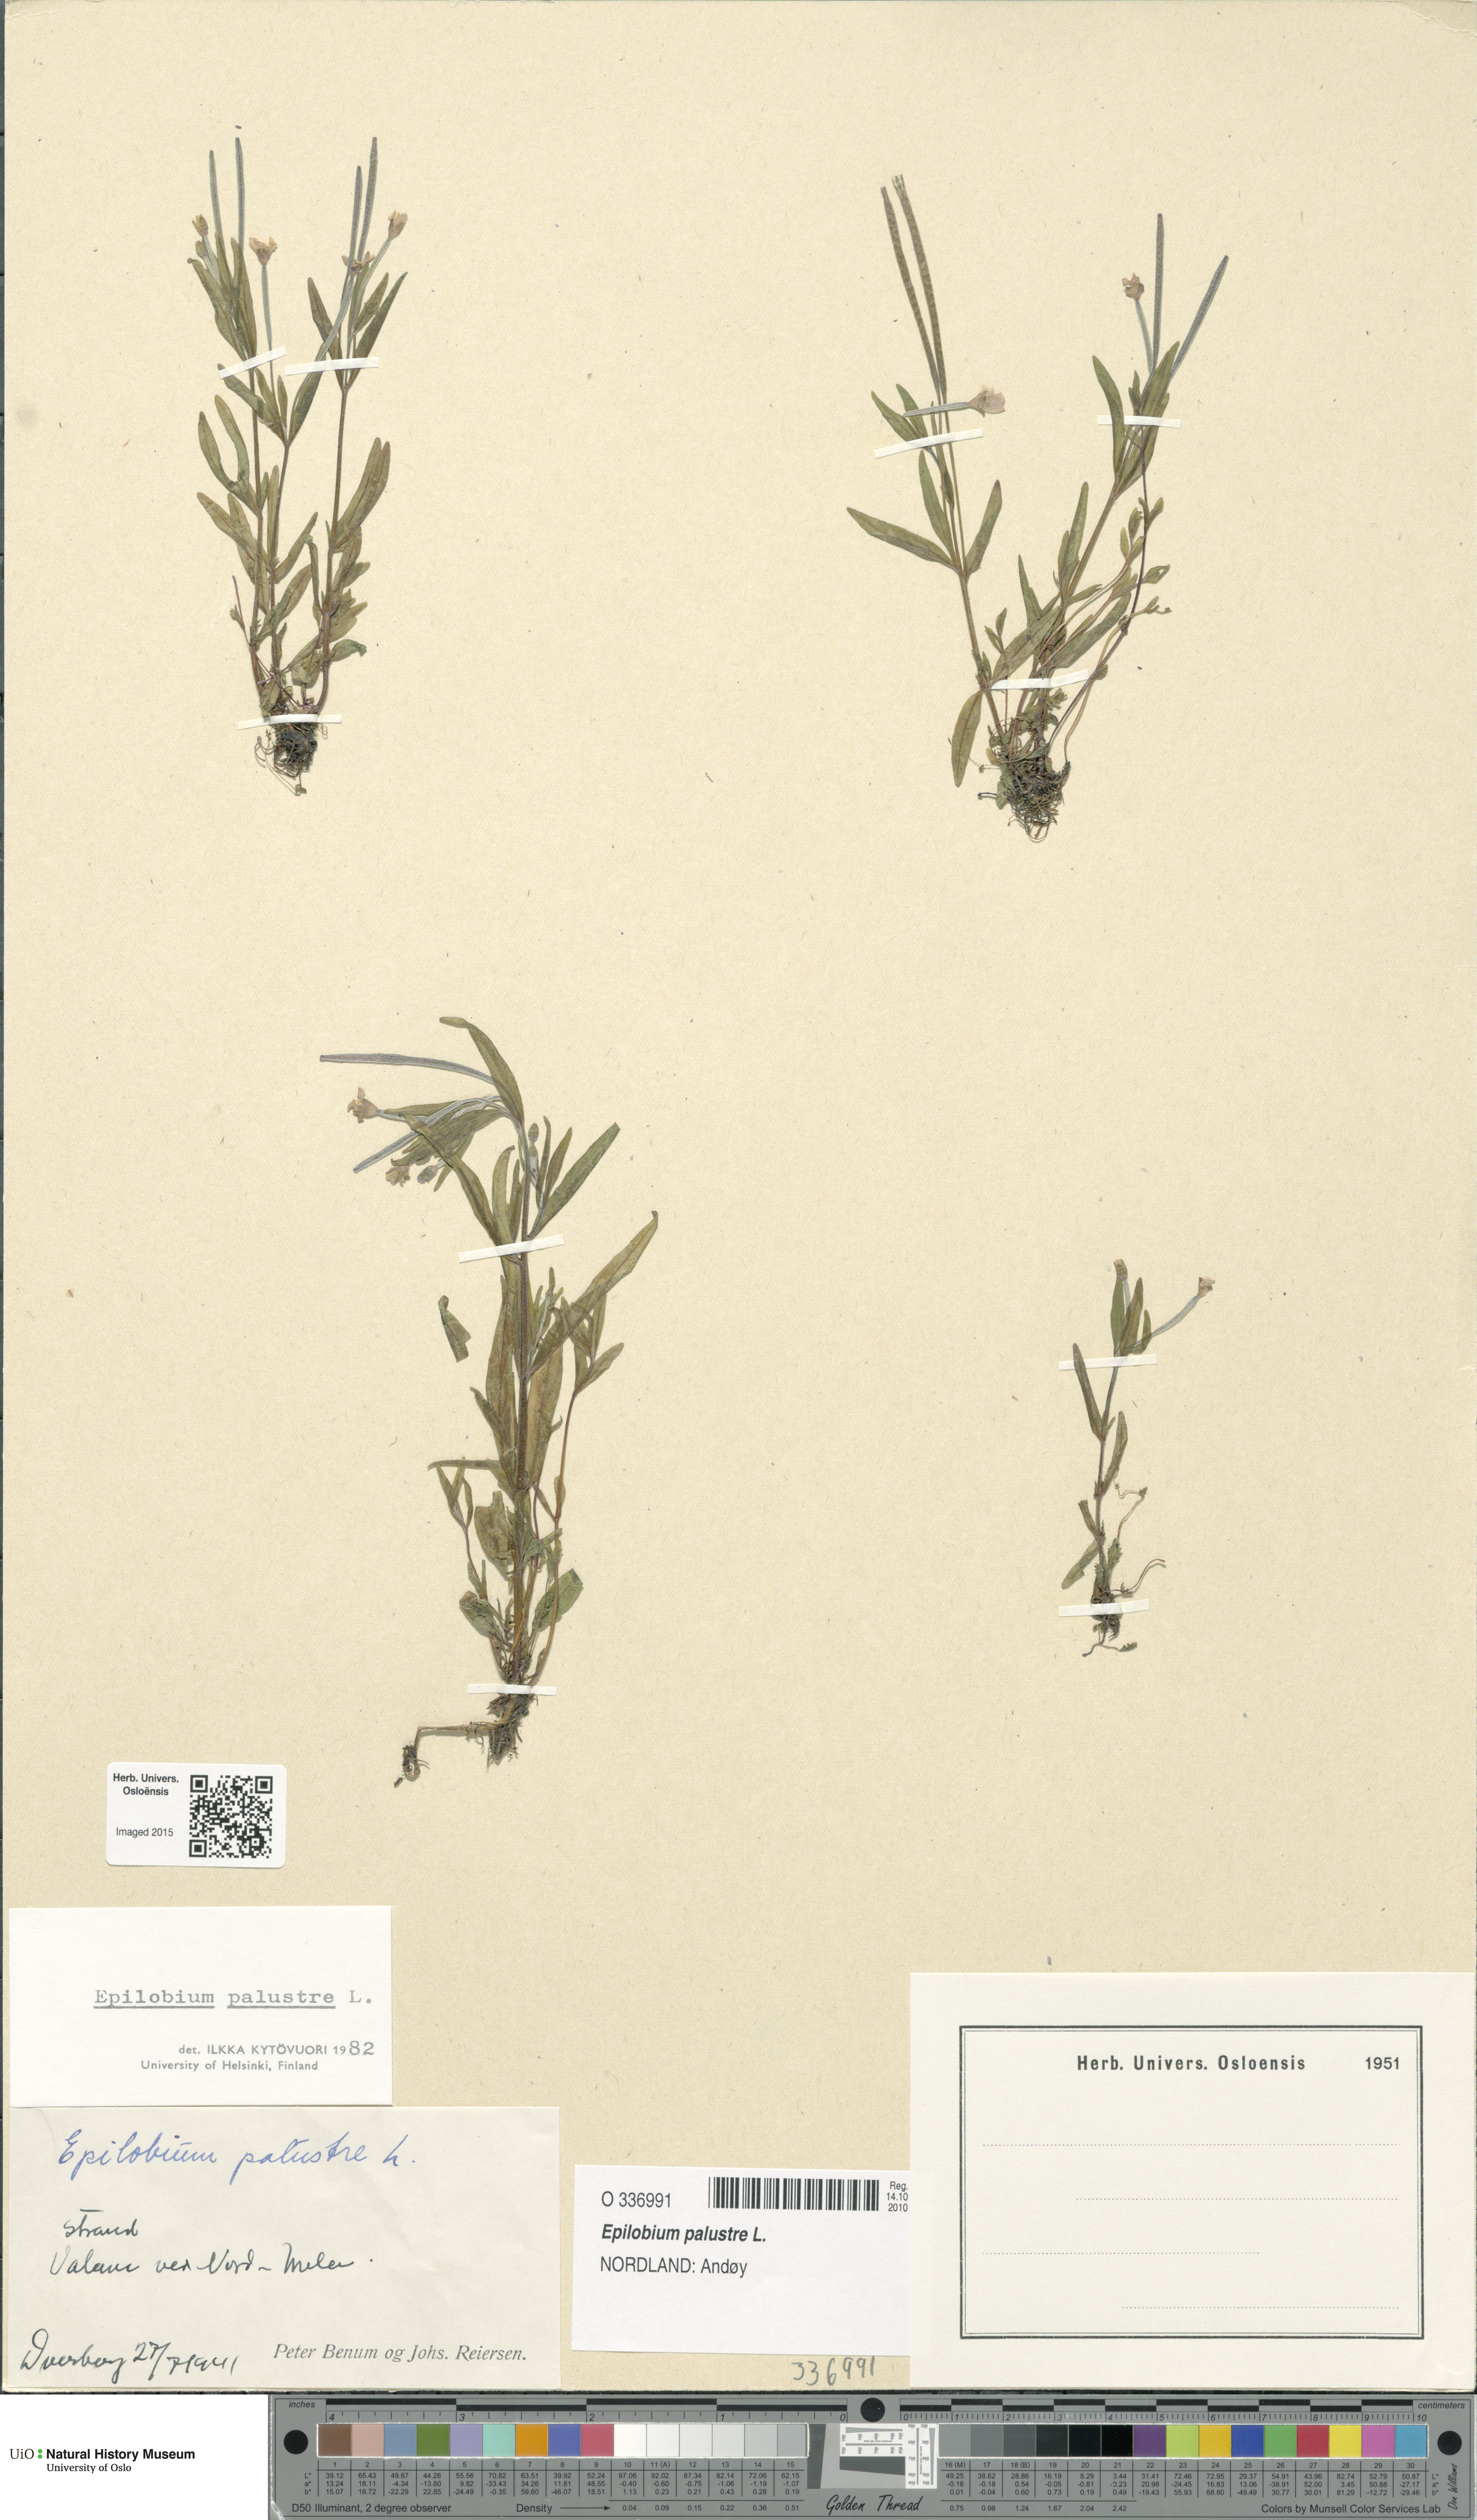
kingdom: Plantae
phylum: Tracheophyta
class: Magnoliopsida
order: Myrtales
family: Onagraceae
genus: Epilobium
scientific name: Epilobium palustre
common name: Marsh willowherb
